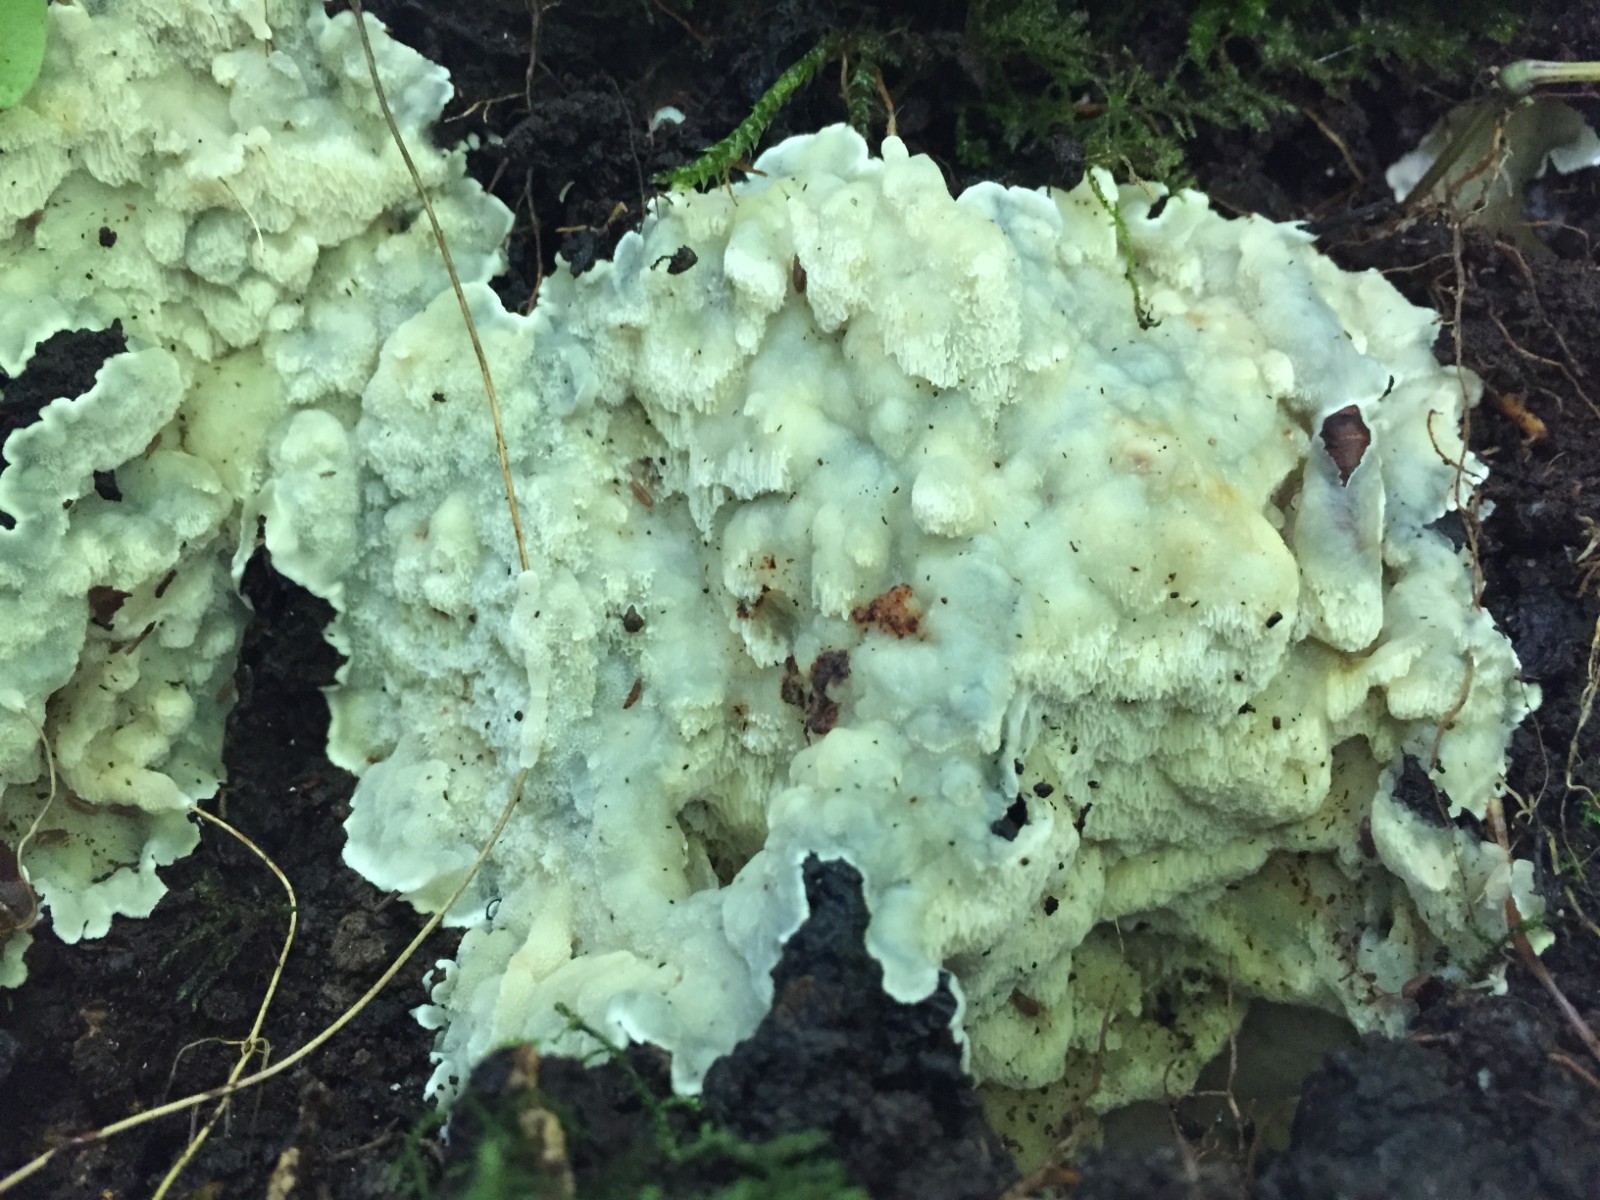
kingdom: Fungi
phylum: Basidiomycota
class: Agaricomycetes
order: Polyporales
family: Meruliaceae
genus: Physisporinus
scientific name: Physisporinus vitreus
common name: mastesvamp
